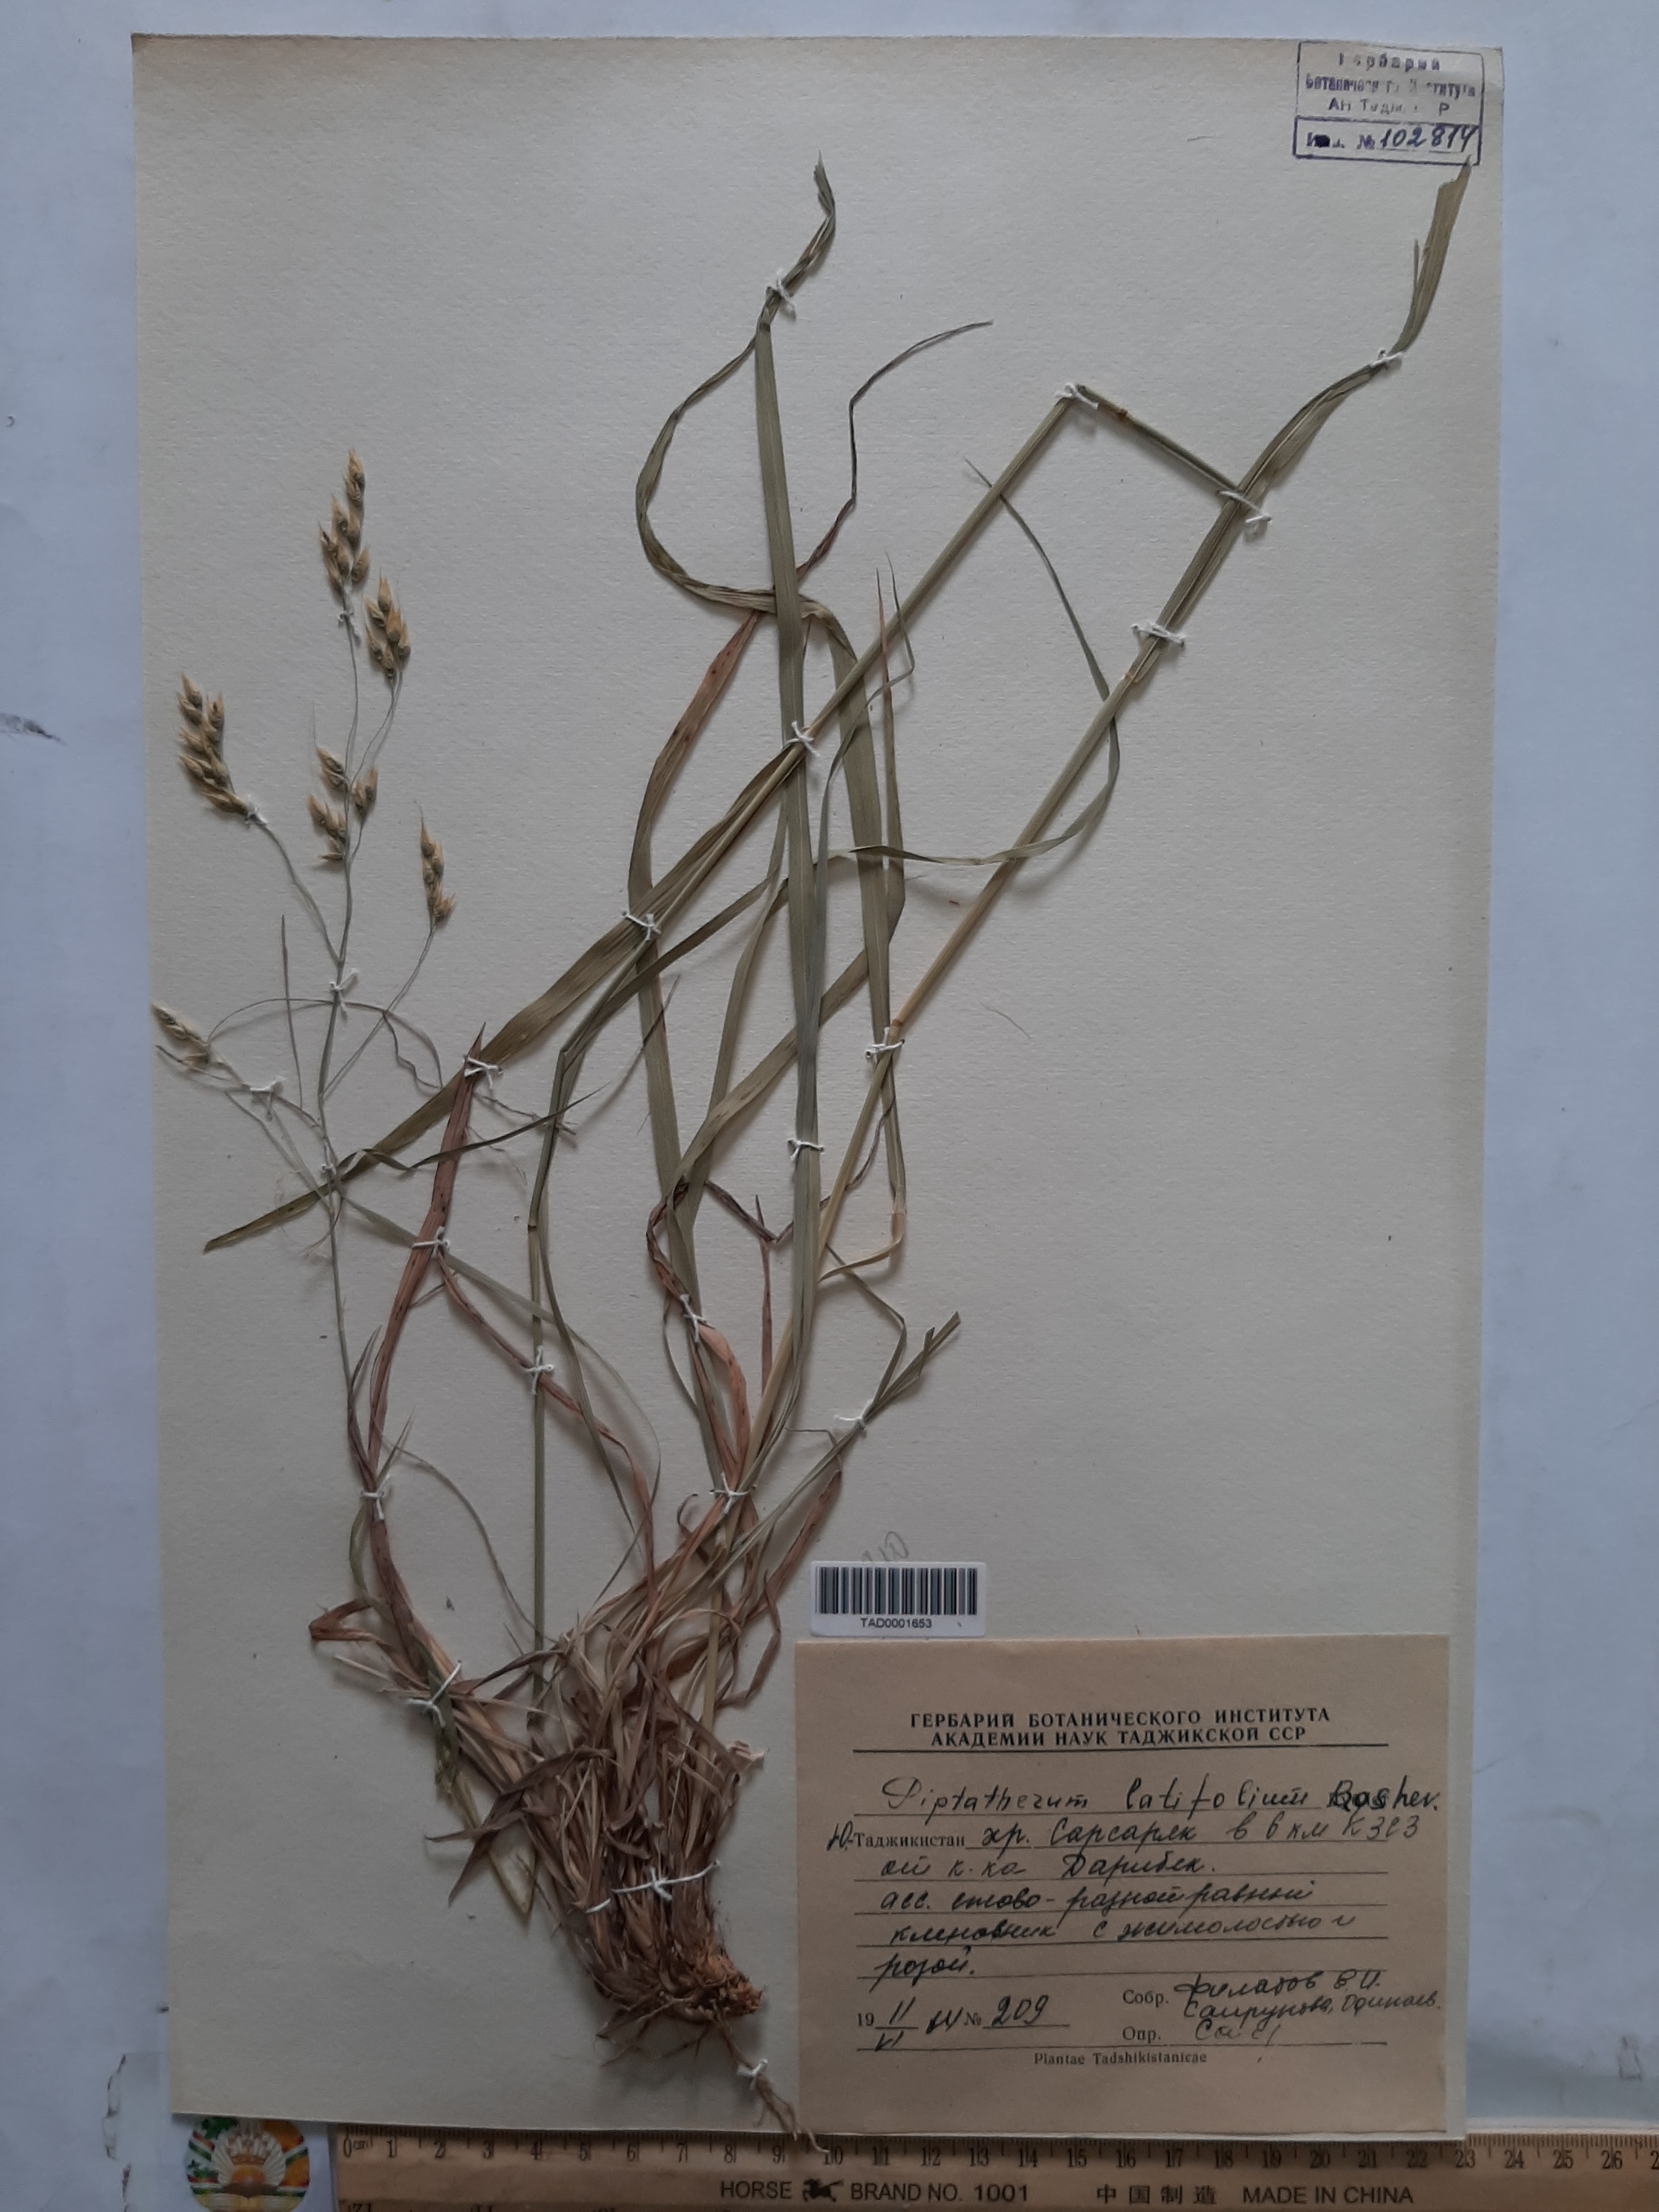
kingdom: Plantae
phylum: Tracheophyta
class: Liliopsida
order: Poales
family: Poaceae
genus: Piptatherum
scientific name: Piptatherum latifolium
